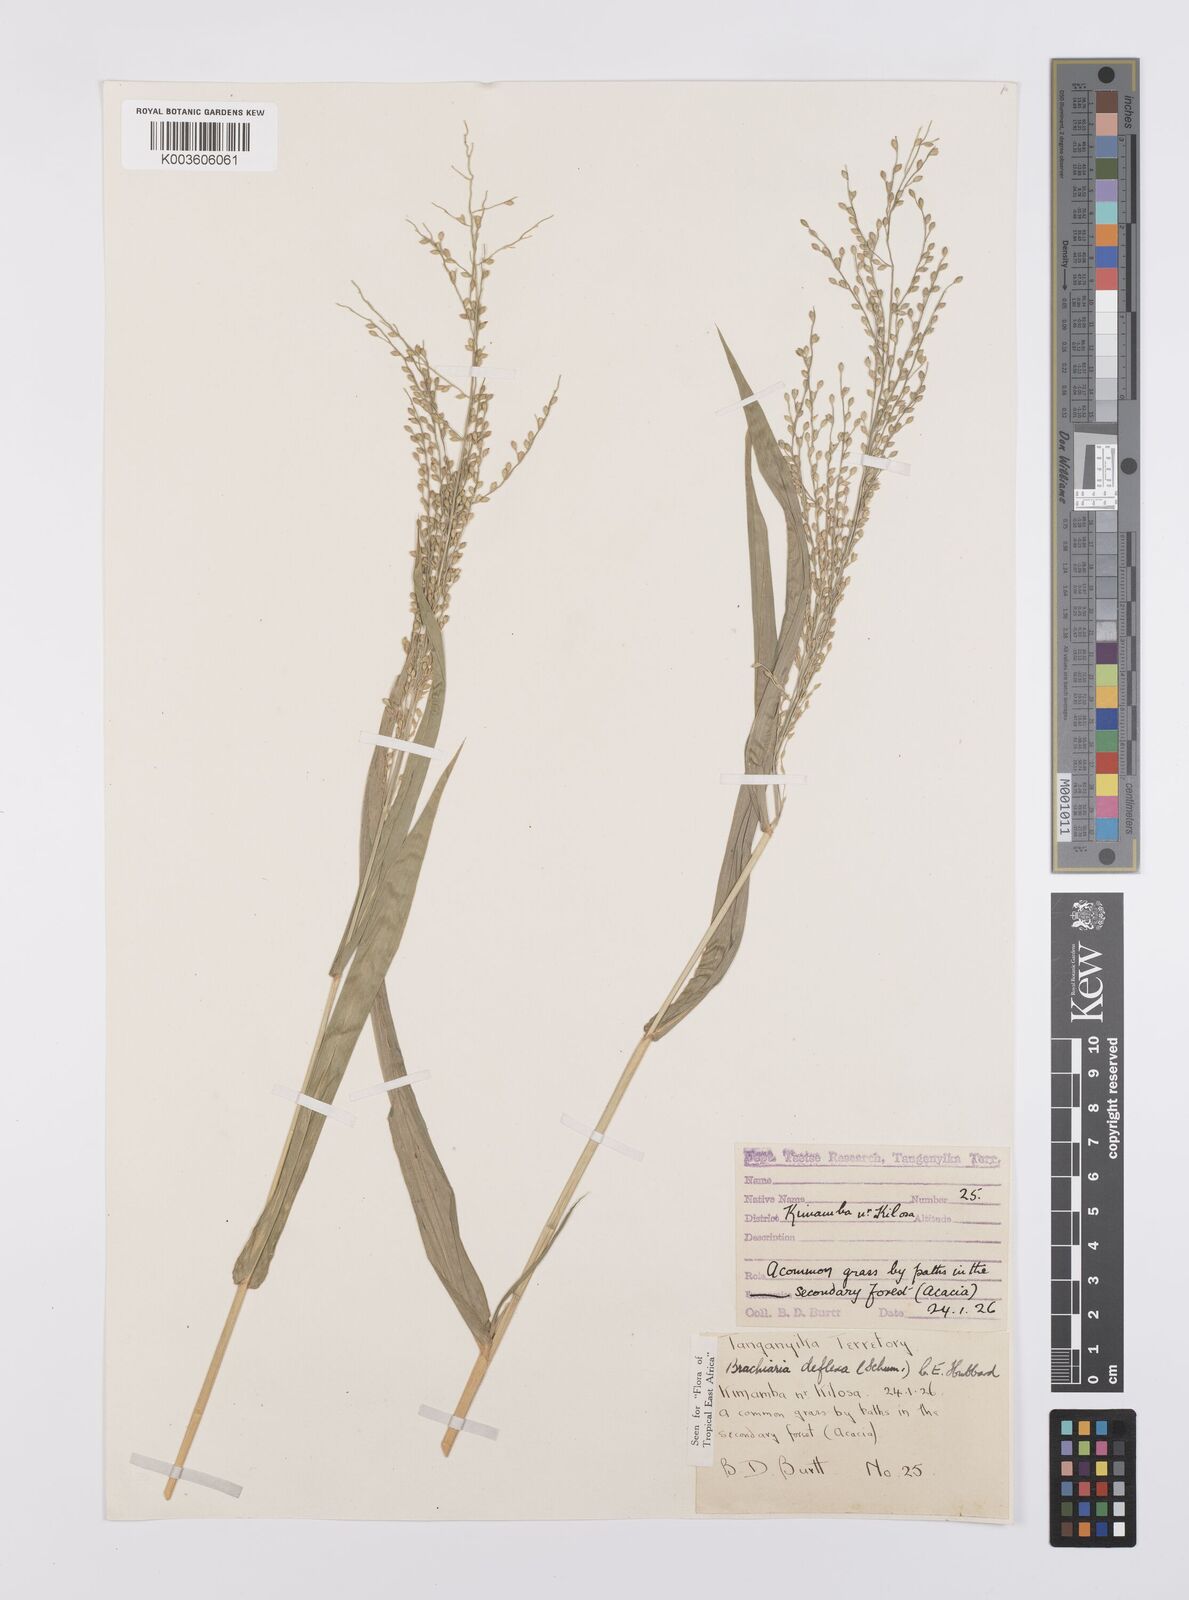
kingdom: Plantae
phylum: Tracheophyta
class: Liliopsida
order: Poales
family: Poaceae
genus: Urochloa
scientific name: Urochloa deflexa
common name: Guinea millet
